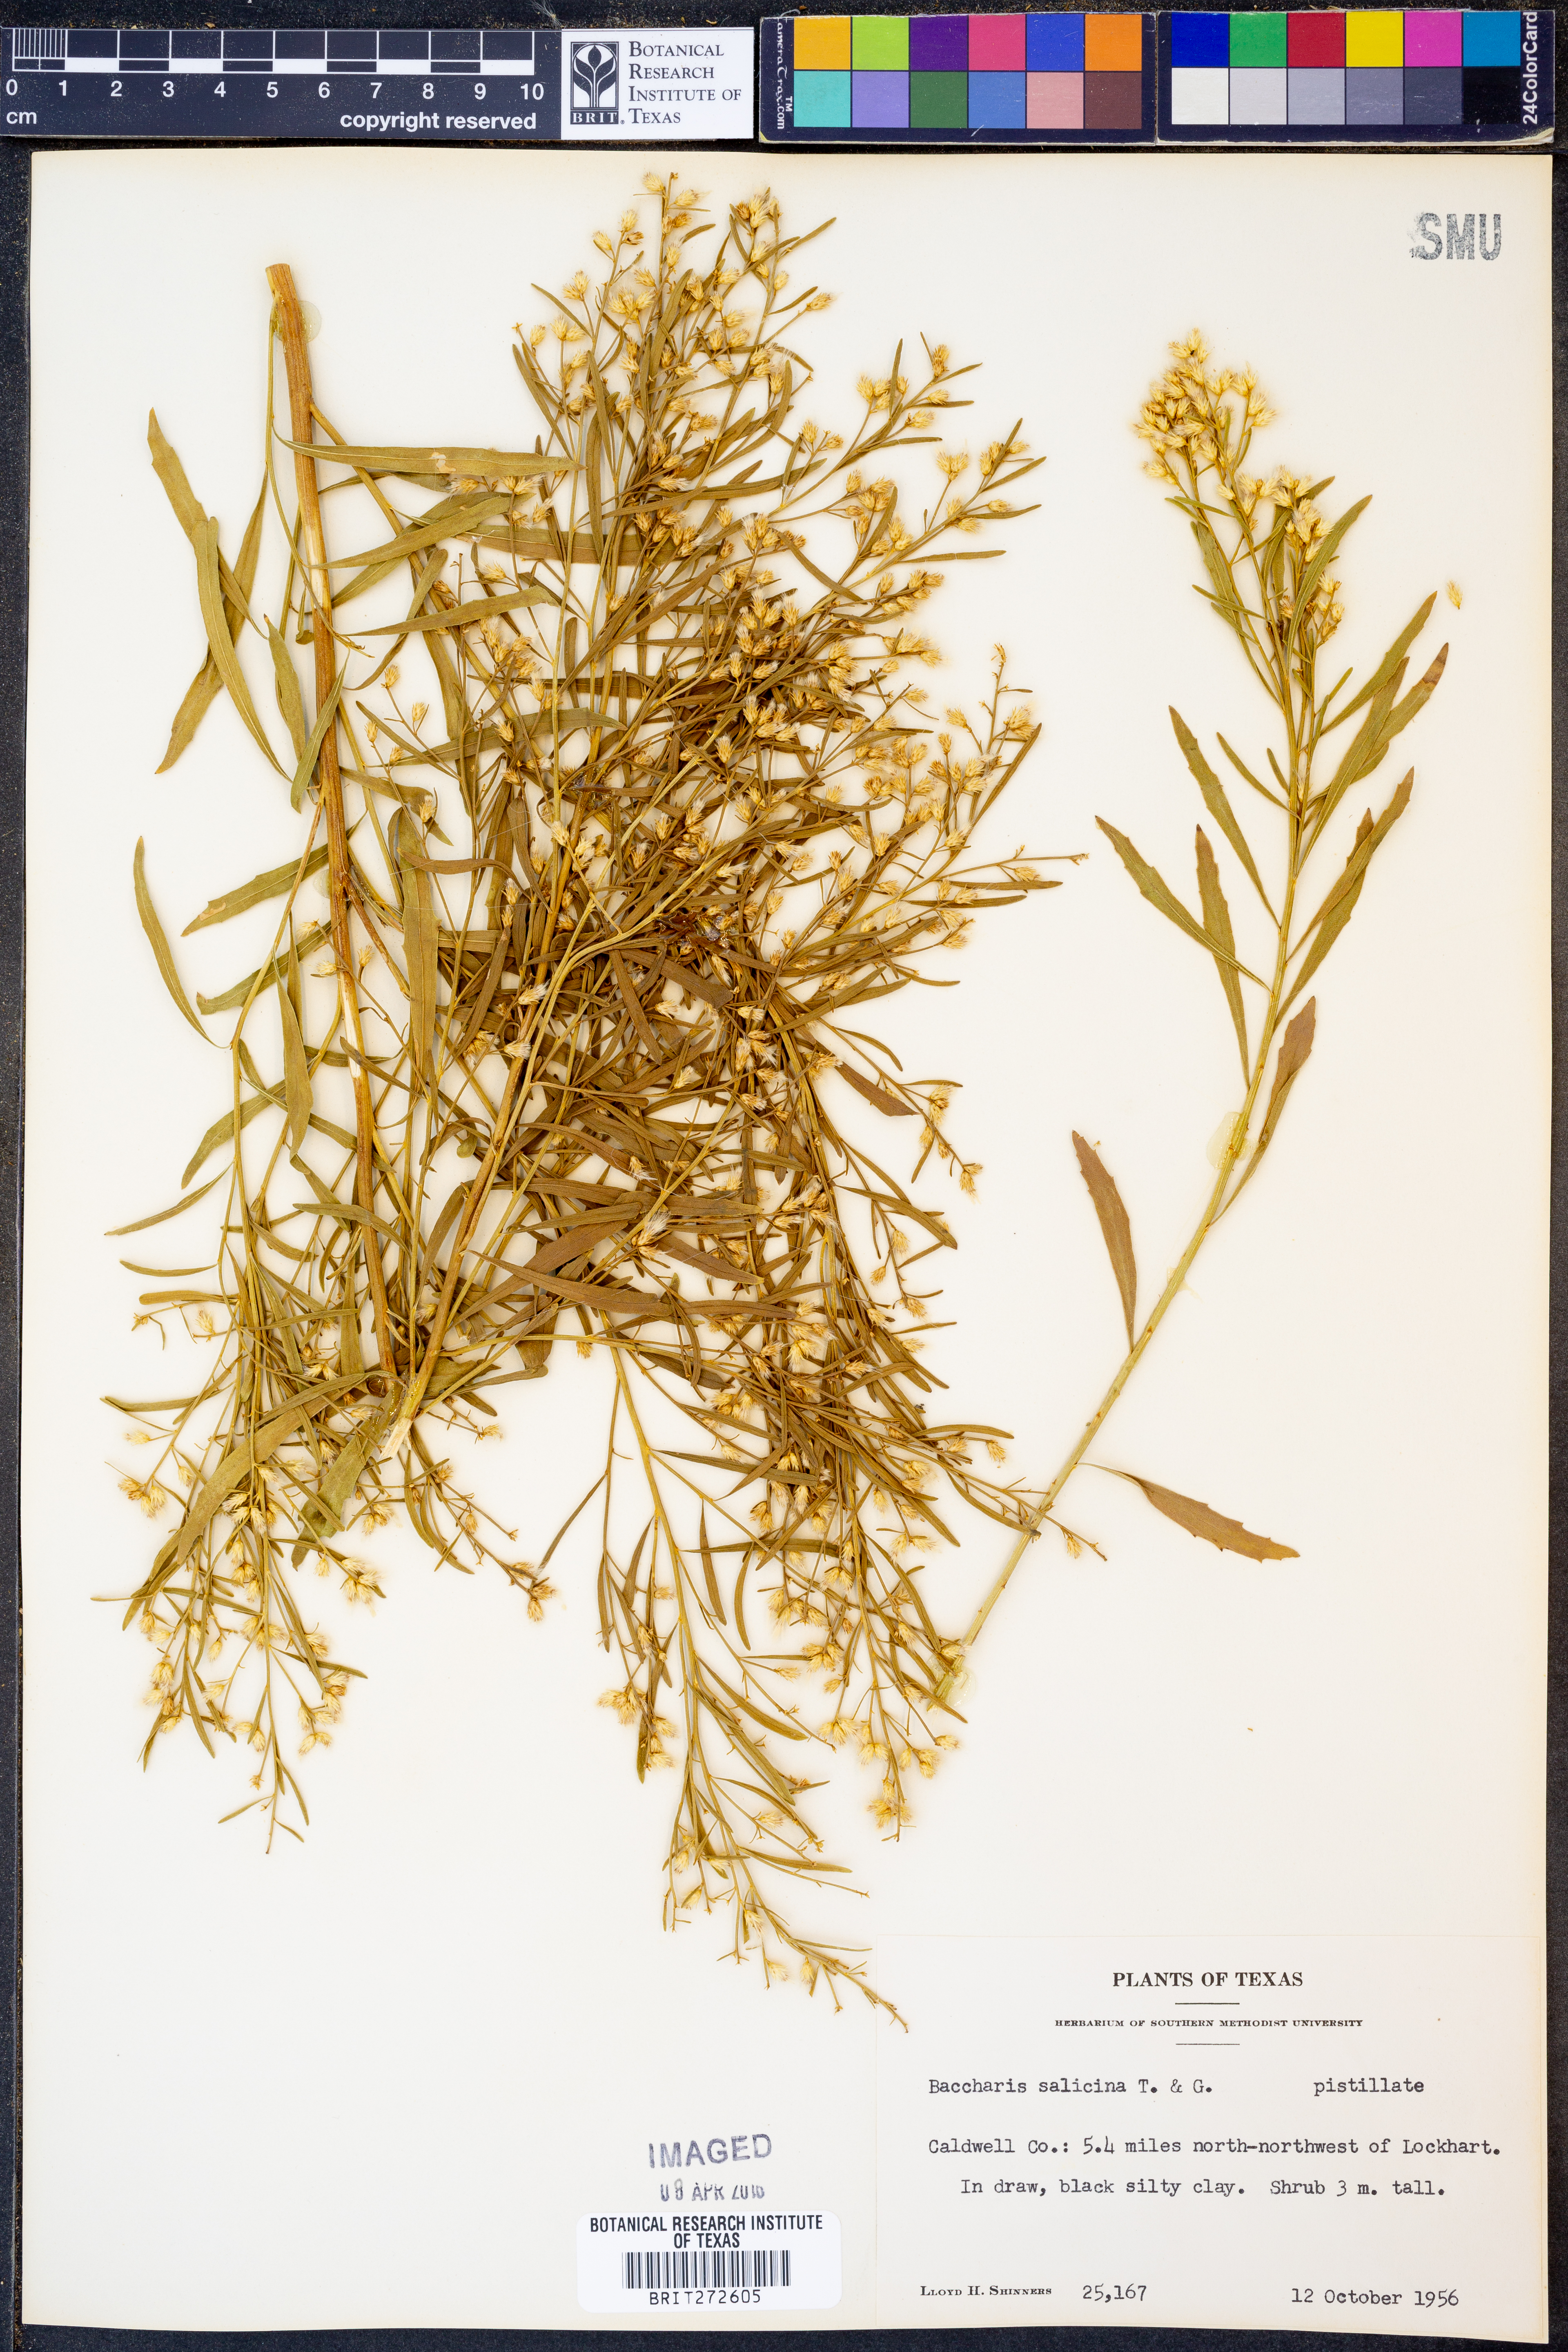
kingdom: Plantae
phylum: Tracheophyta
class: Magnoliopsida
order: Asterales
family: Asteraceae
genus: Baccharis
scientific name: Baccharis salicina
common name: Willow baccharis
